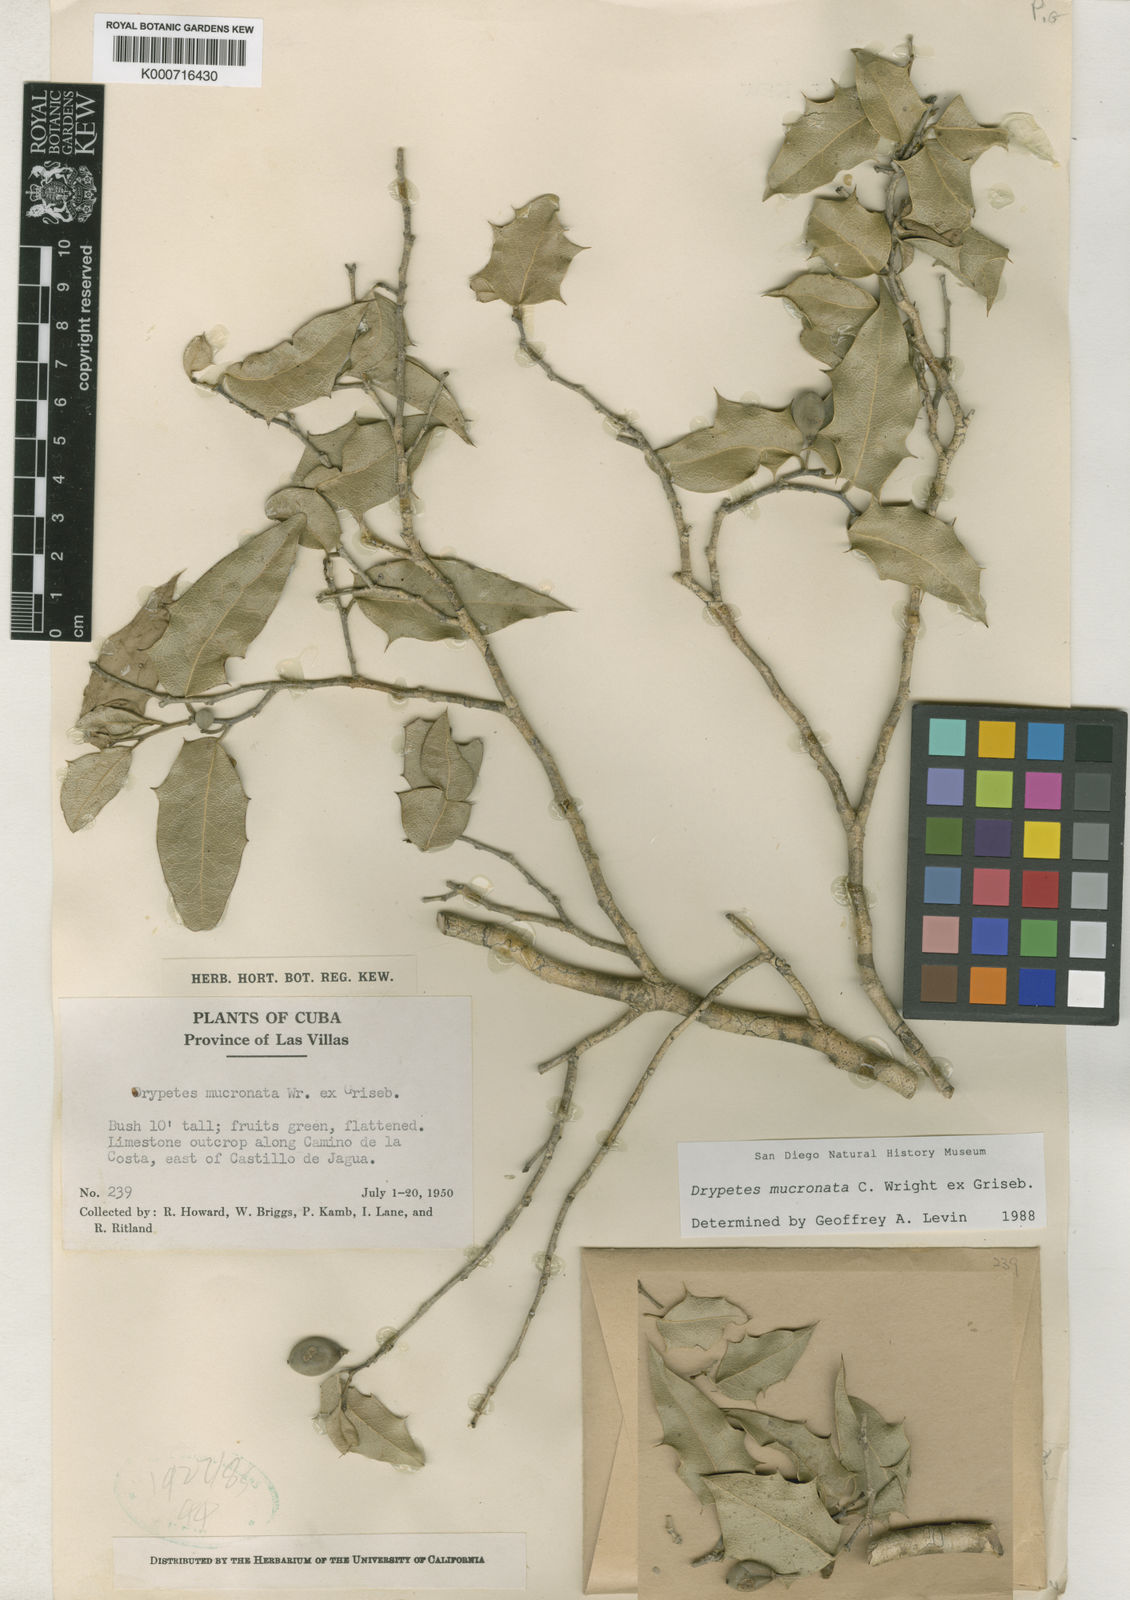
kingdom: Plantae
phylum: Tracheophyta
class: Magnoliopsida
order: Malpighiales
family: Putranjivaceae
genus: Drypetes
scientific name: Drypetes mucronata
